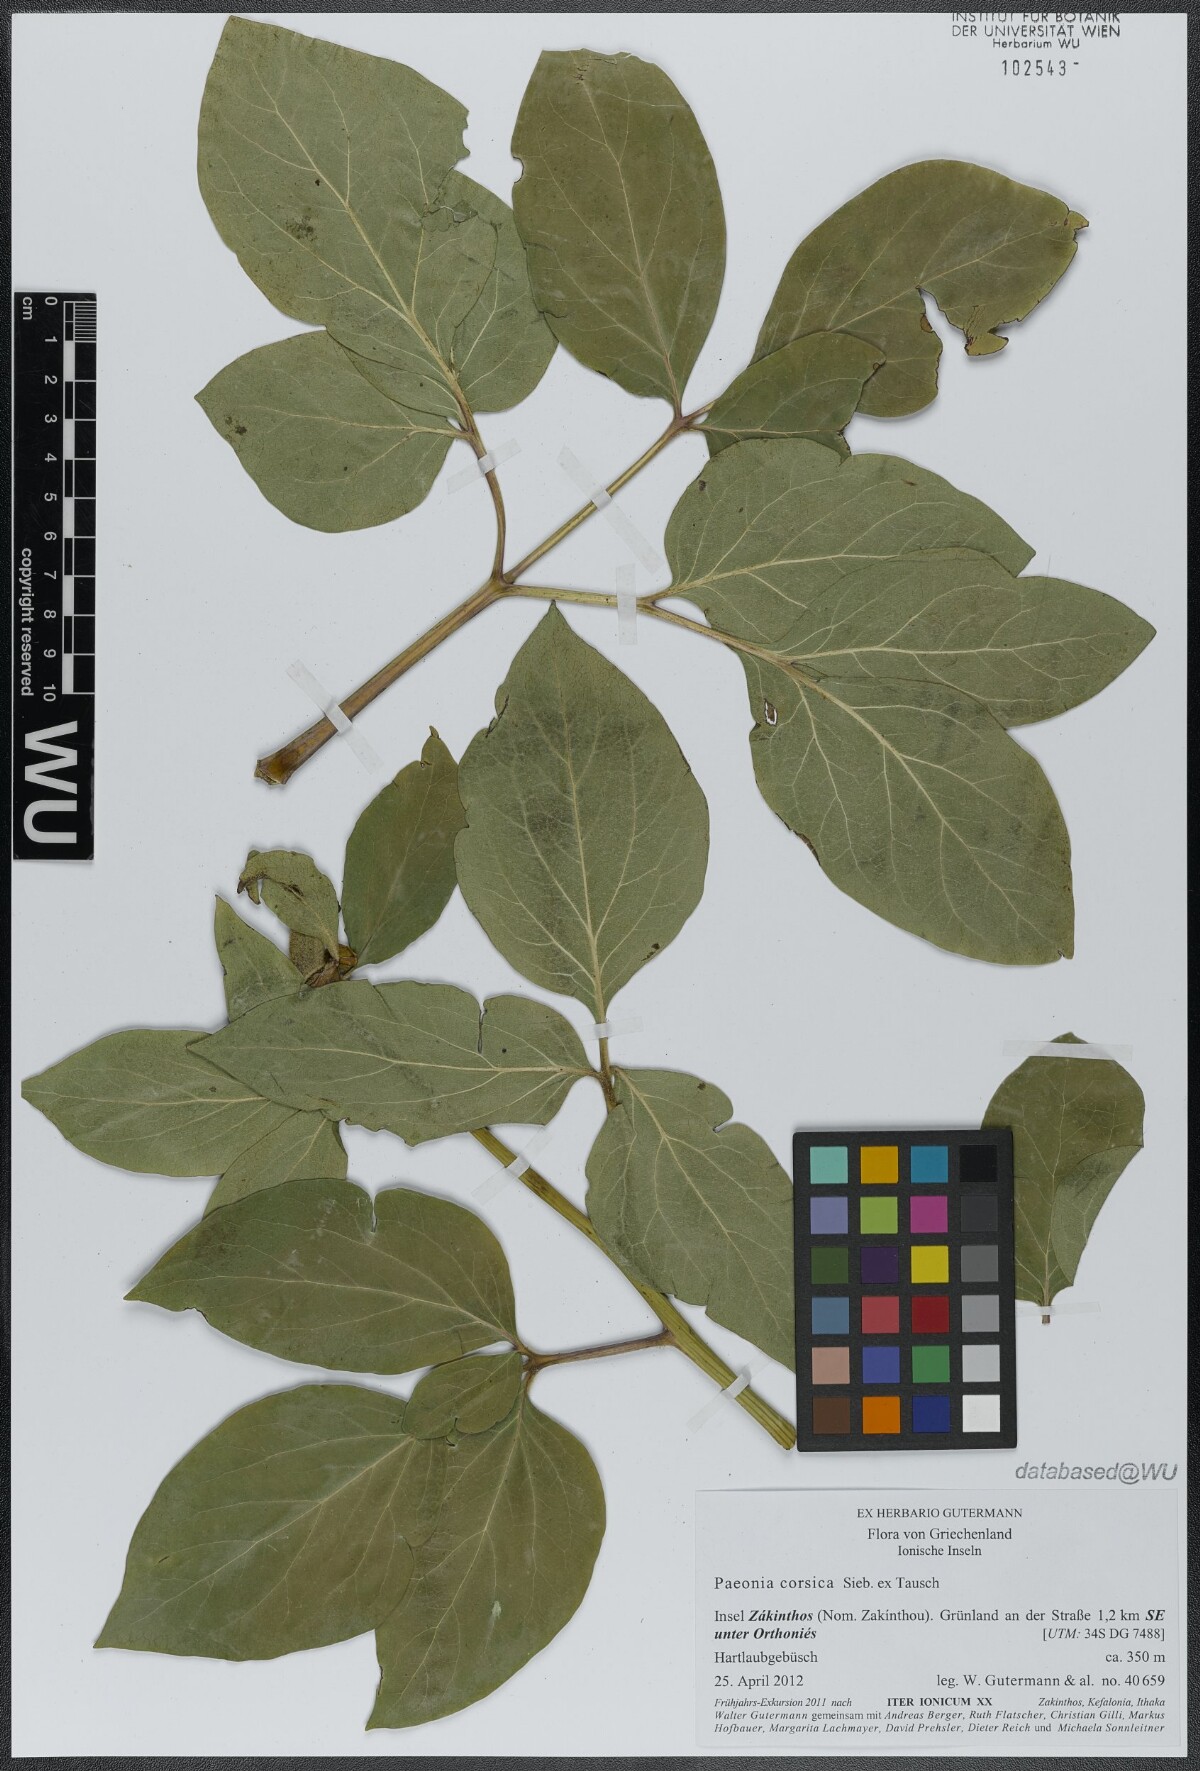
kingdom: Plantae
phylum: Tracheophyta
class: Magnoliopsida
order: Saxifragales
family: Paeoniaceae
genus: Paeonia
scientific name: Paeonia corsica
